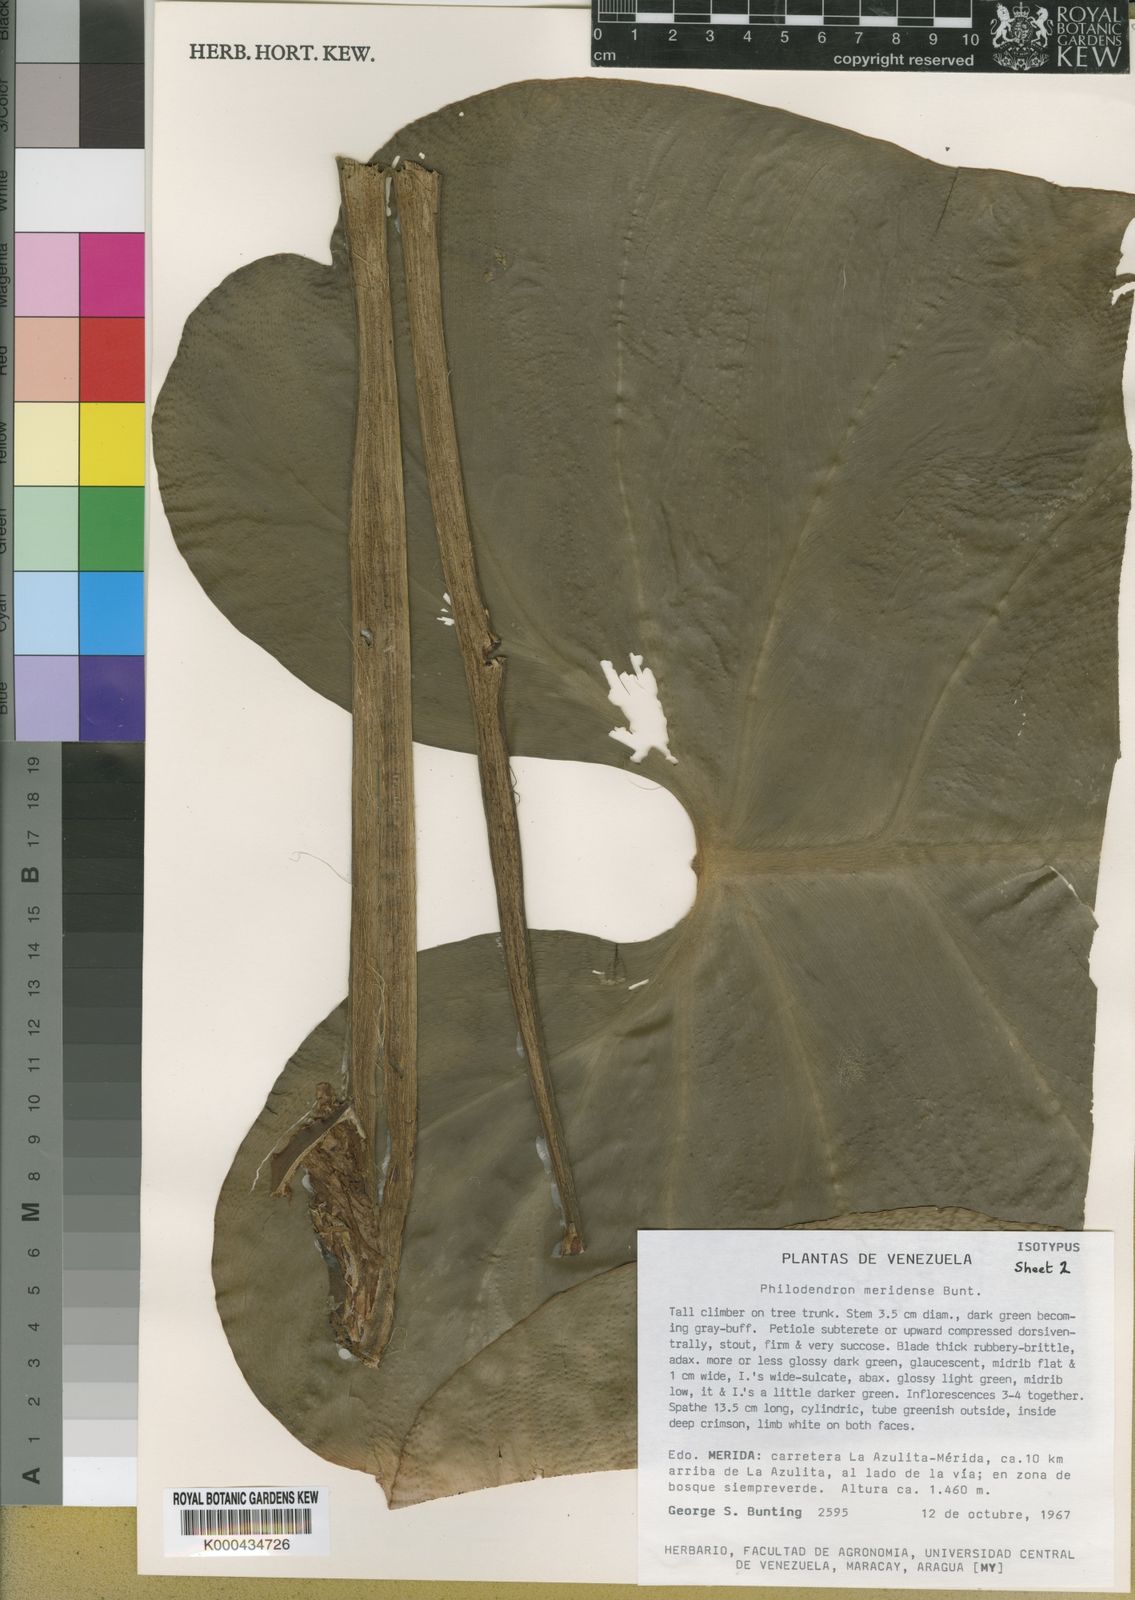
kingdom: Plantae
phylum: Tracheophyta
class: Liliopsida
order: Alismatales
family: Araceae
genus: Philodendron
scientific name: Philodendron meridense
